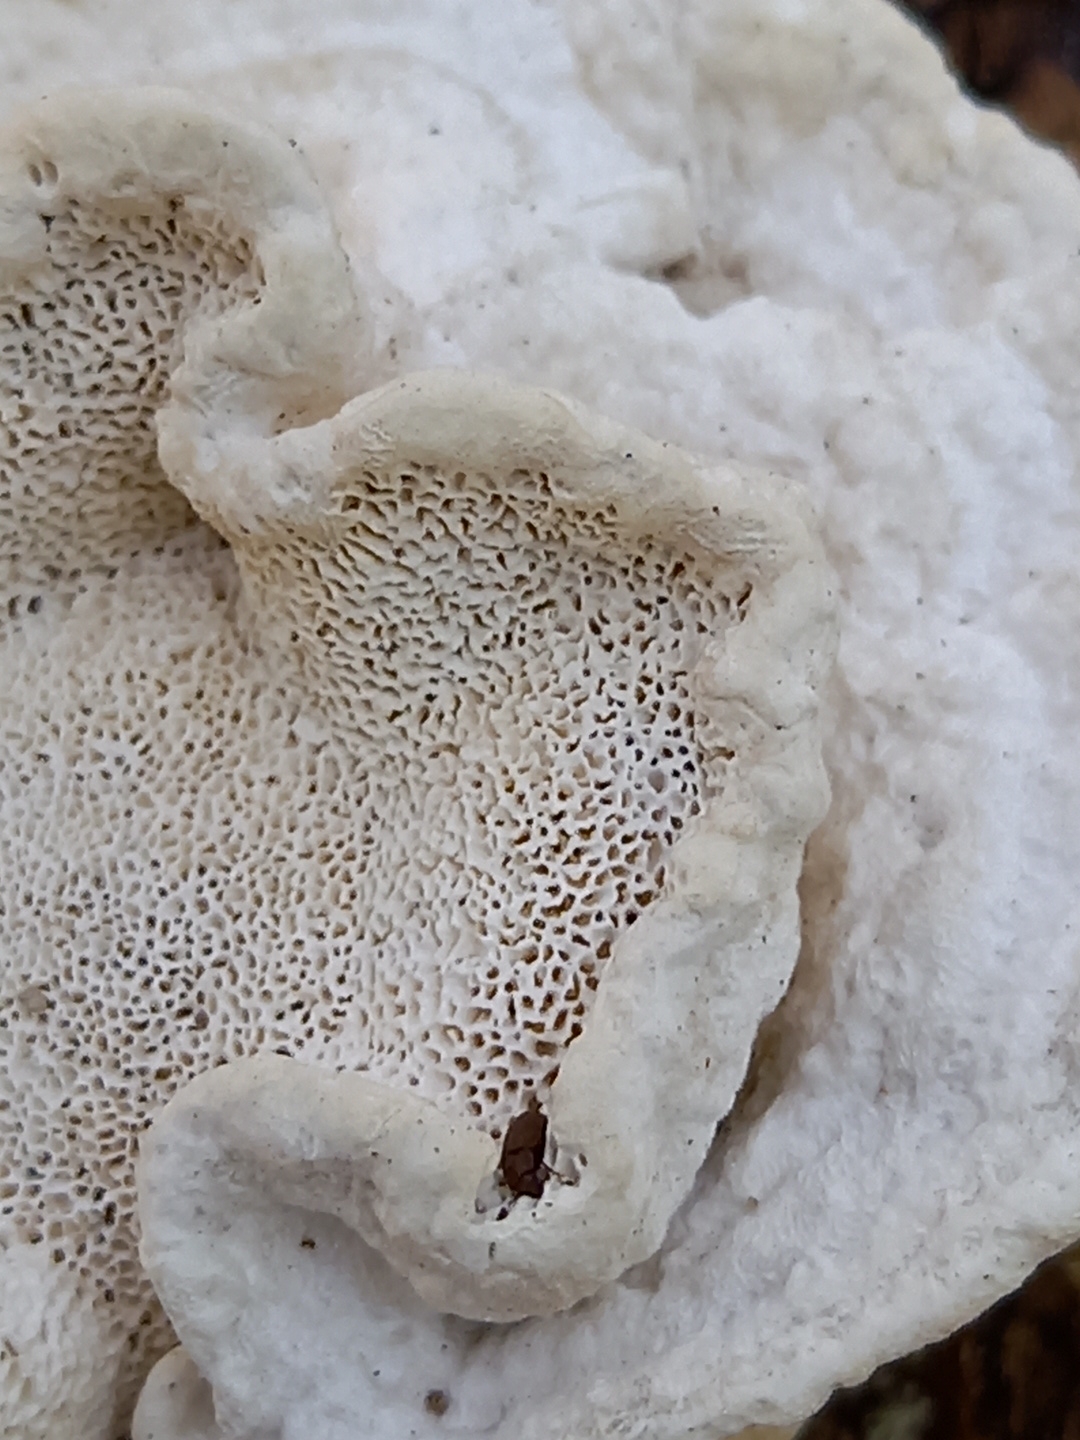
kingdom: Fungi
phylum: Basidiomycota
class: Agaricomycetes
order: Polyporales
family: Polyporaceae
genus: Trametes
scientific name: Trametes gibbosa
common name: puklet læderporesvamp
